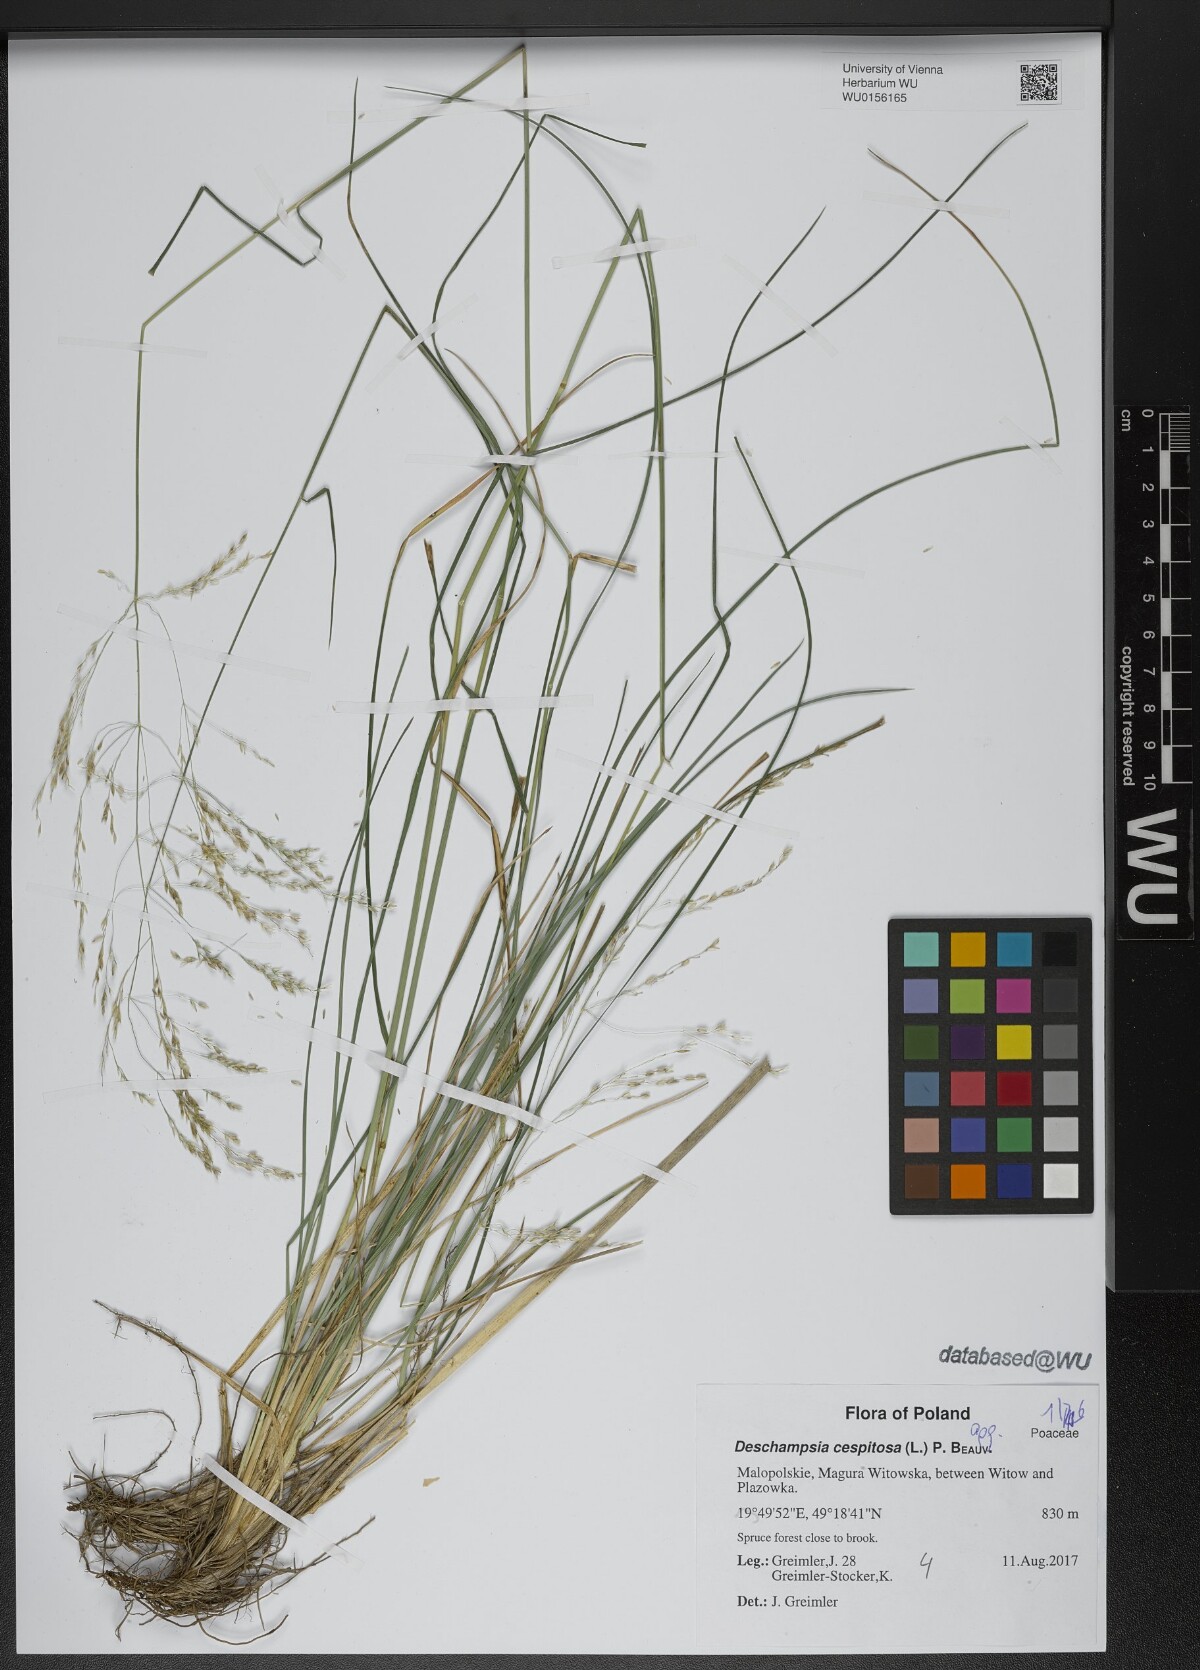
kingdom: Plantae
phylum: Tracheophyta
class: Liliopsida
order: Poales
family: Poaceae
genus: Deschampsia
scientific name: Deschampsia cespitosa
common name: Tufted hair-grass
